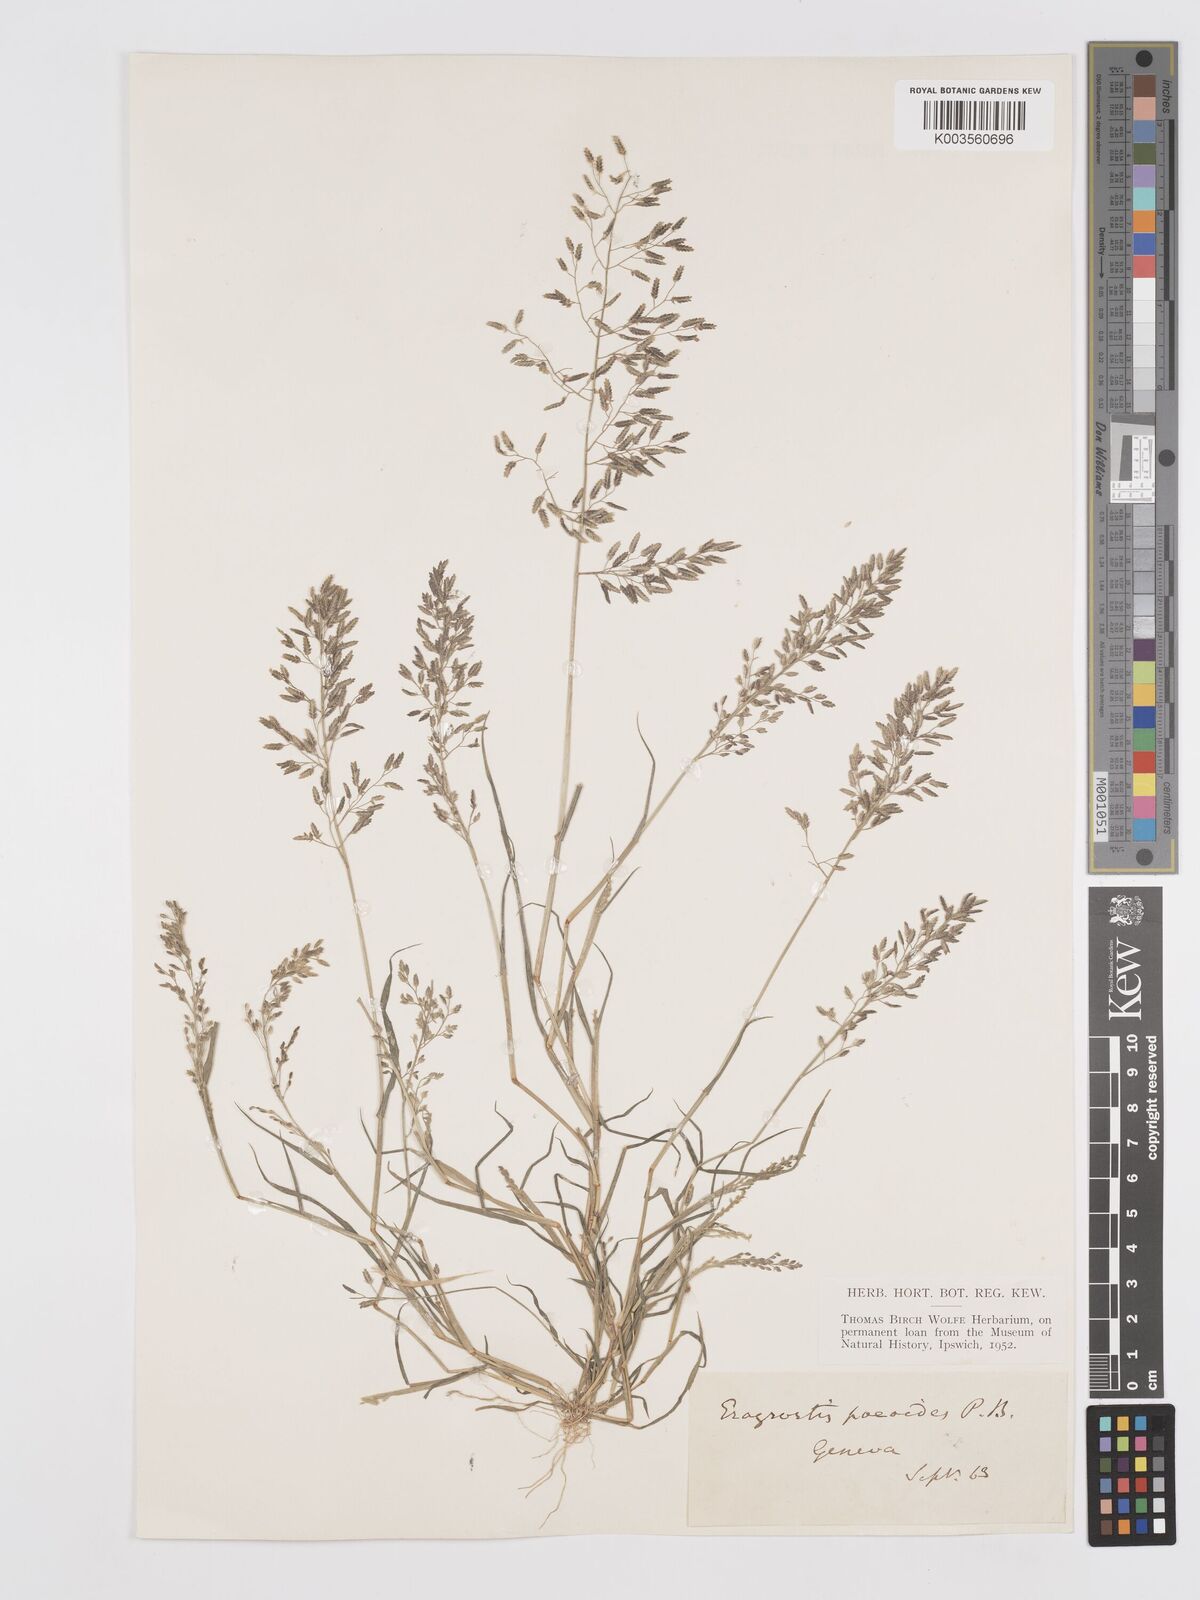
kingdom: Plantae
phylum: Tracheophyta
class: Liliopsida
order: Poales
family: Poaceae
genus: Eragrostis
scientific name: Eragrostis minor
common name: Small love-grass
